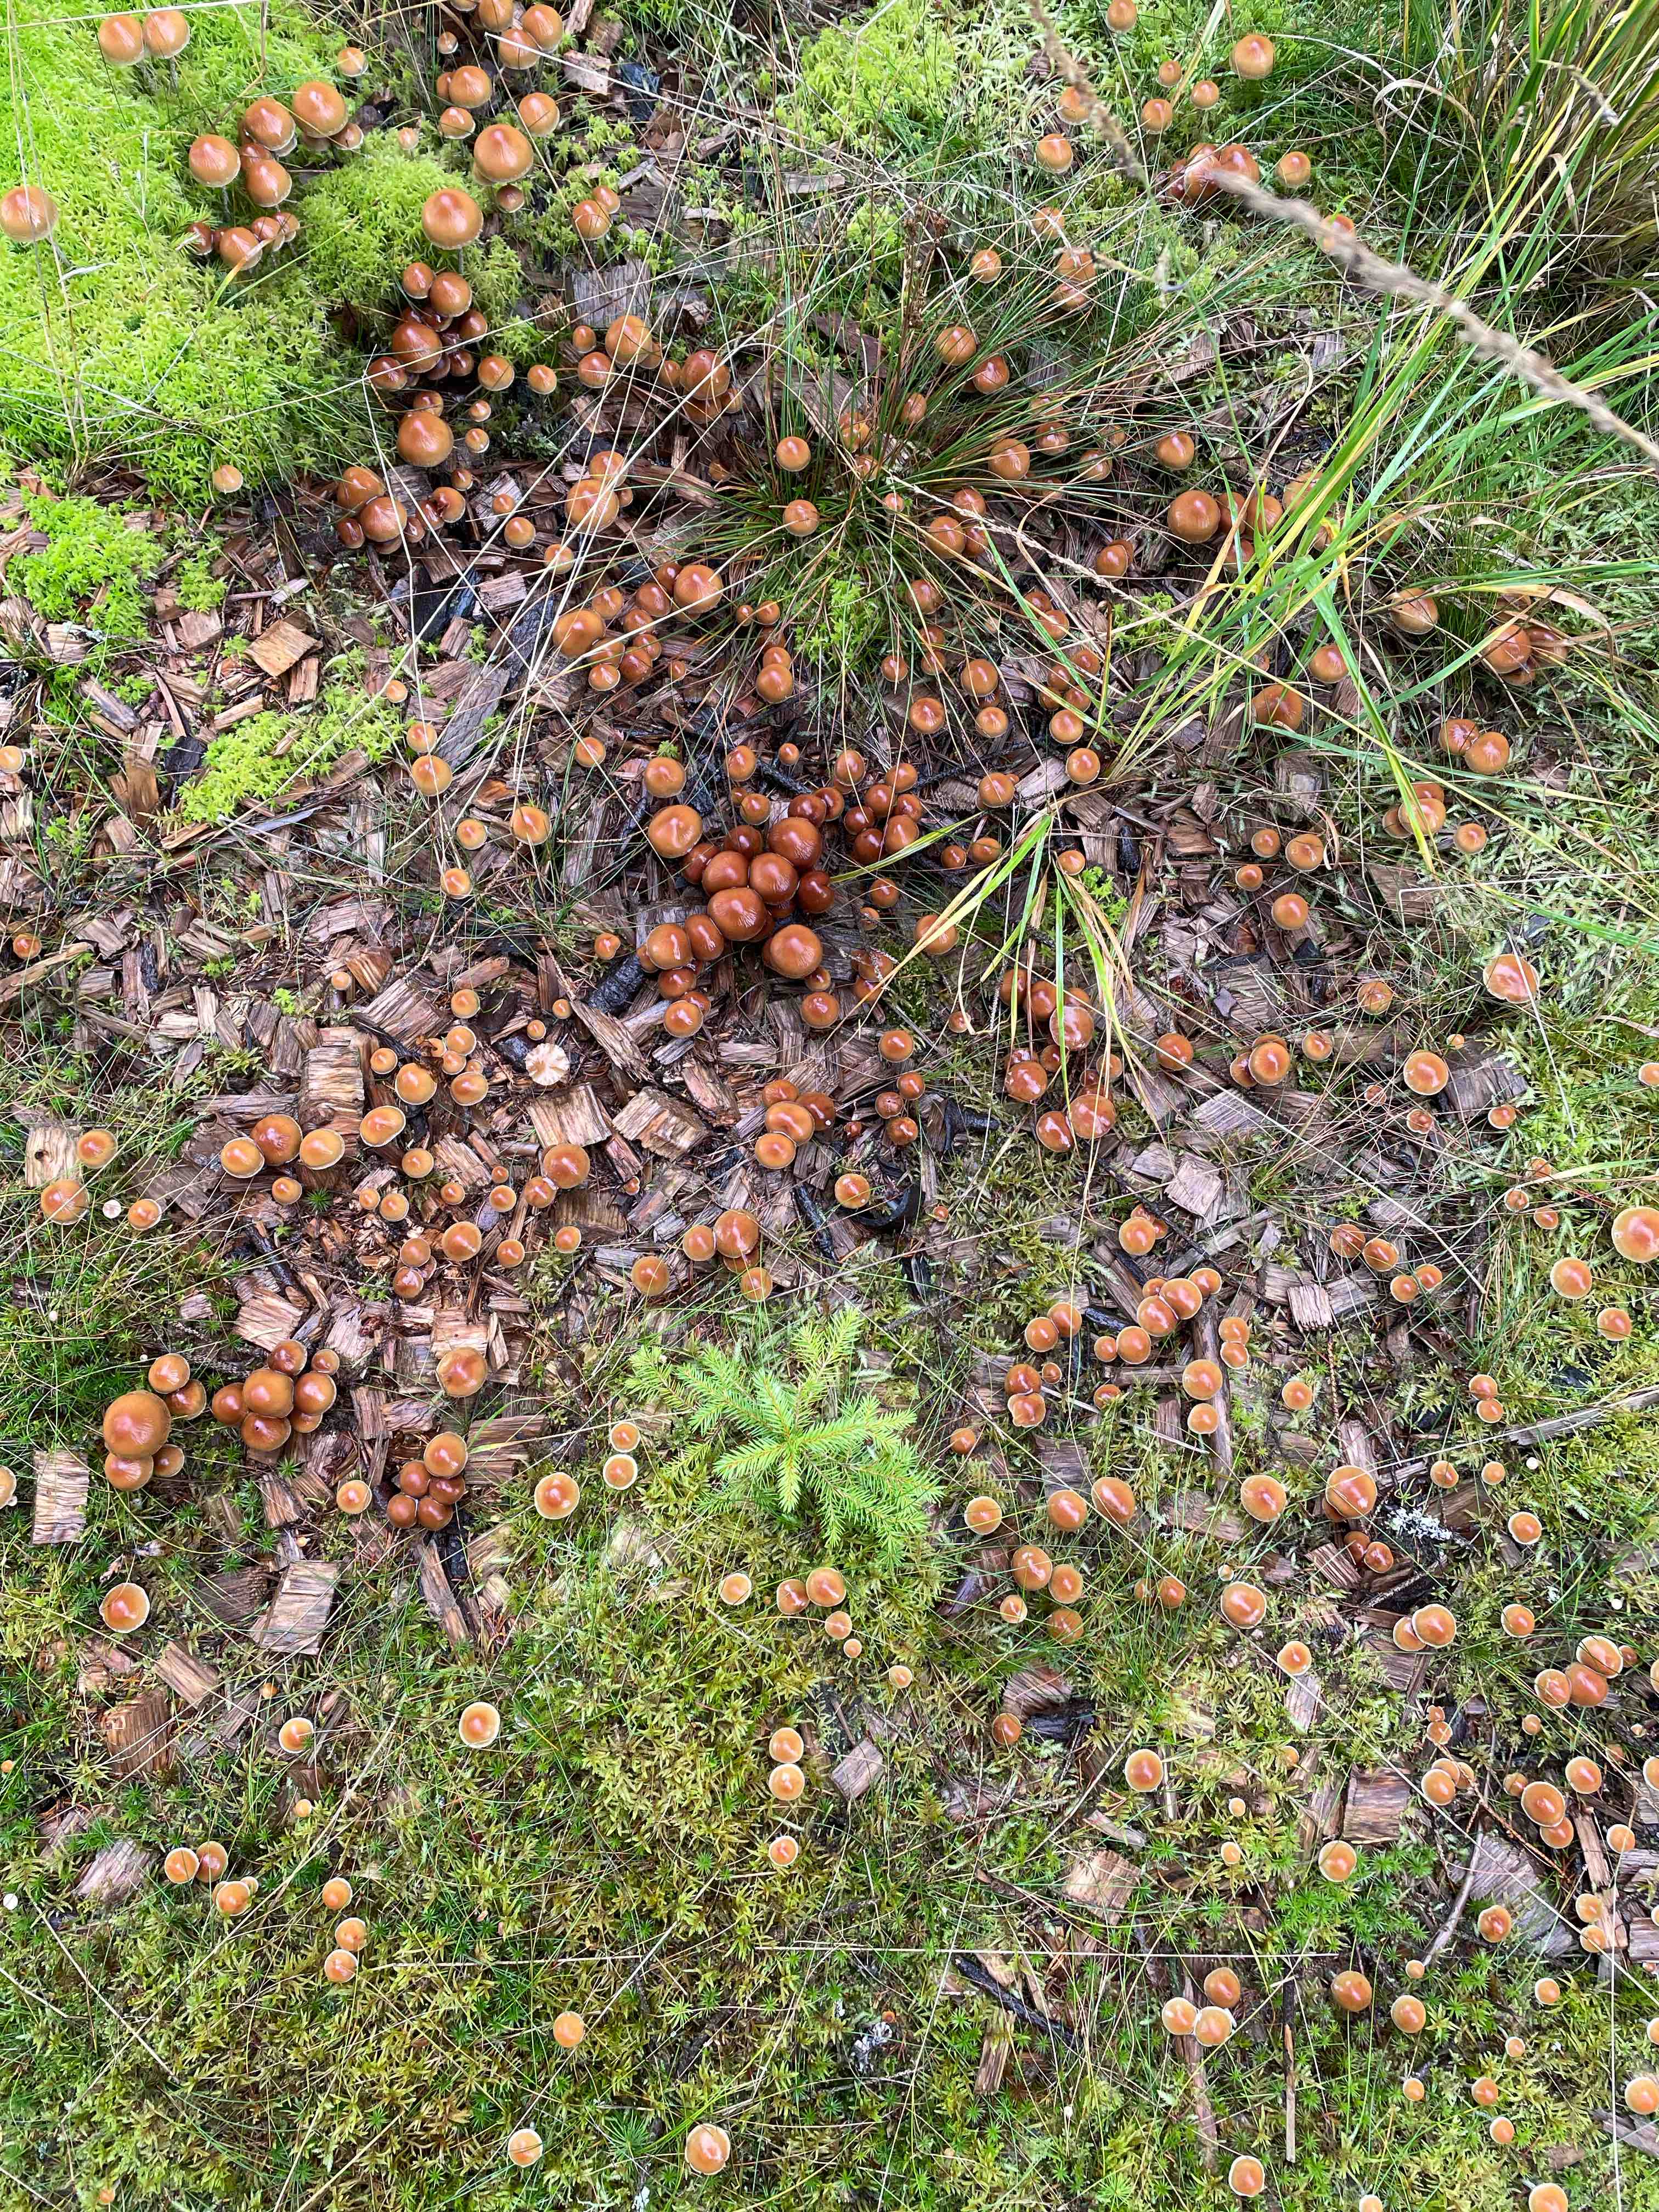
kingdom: Fungi
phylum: Basidiomycota
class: Agaricomycetes
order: Agaricales
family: Strophariaceae
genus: Hypholoma
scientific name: Hypholoma marginatum
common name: enlig svovlhat
